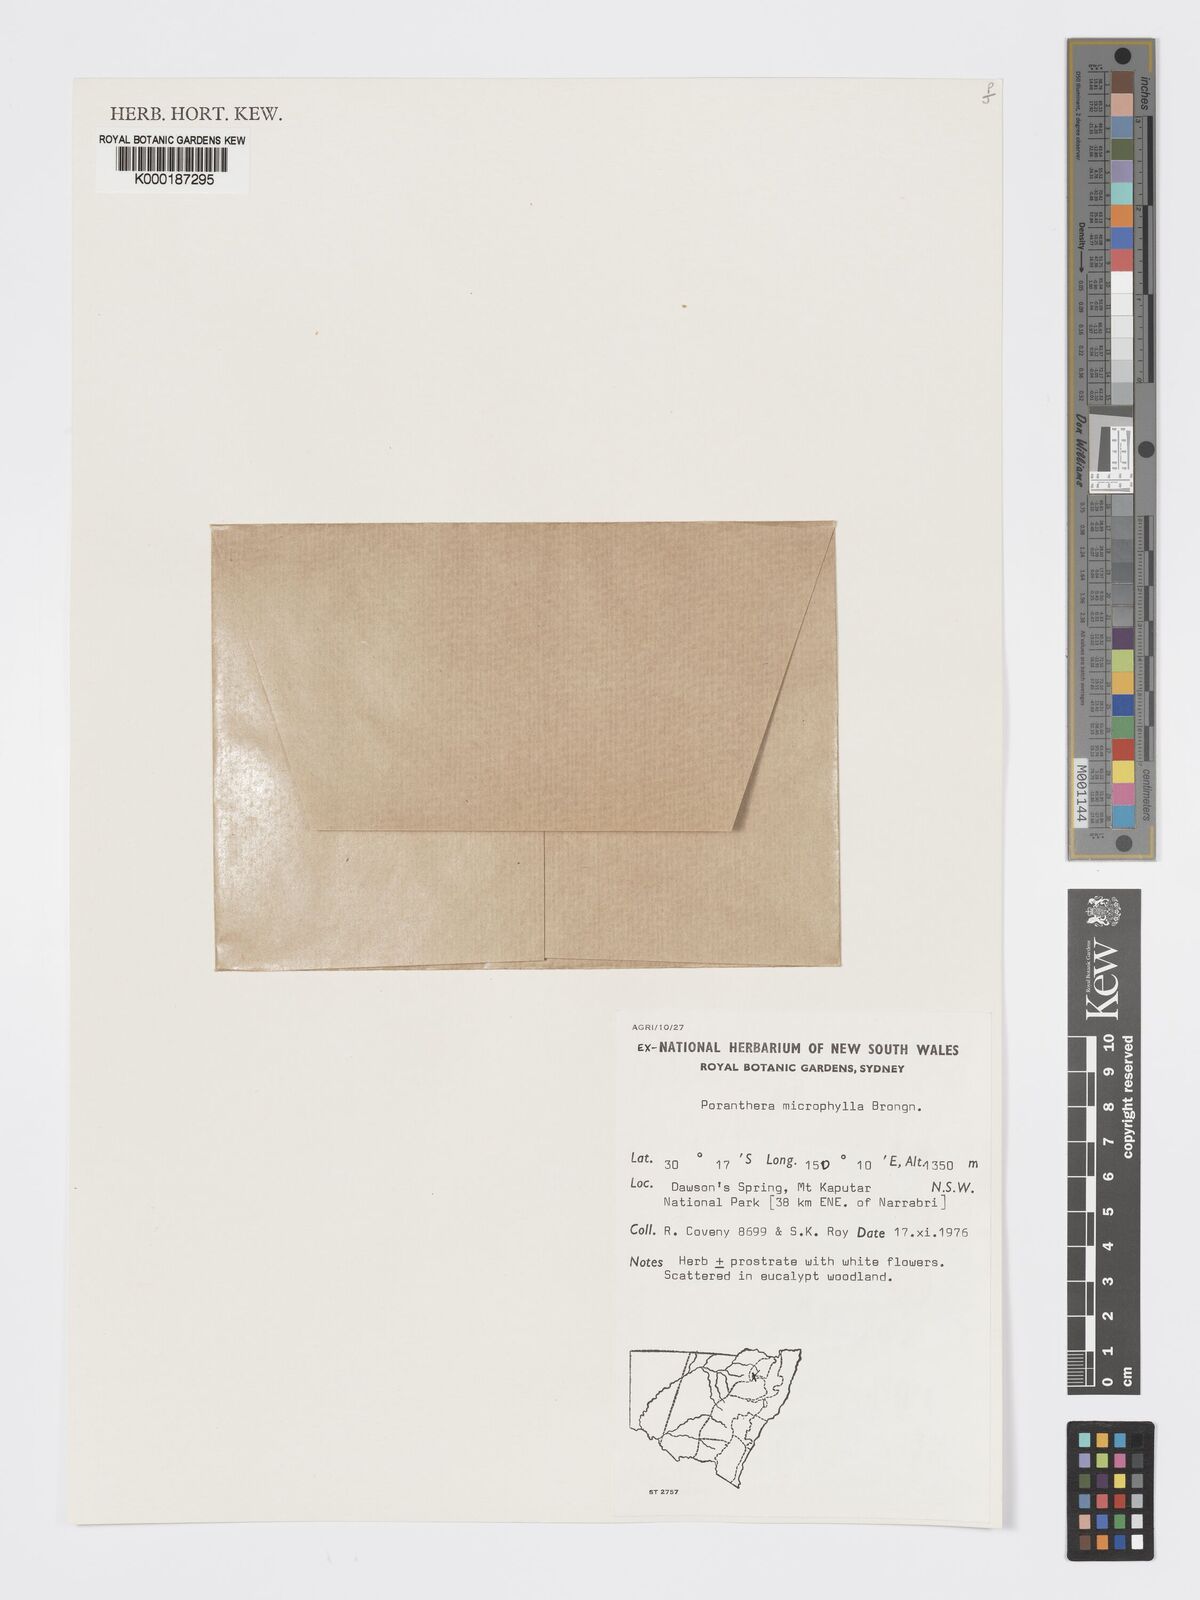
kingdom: Plantae
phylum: Tracheophyta
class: Magnoliopsida
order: Malpighiales
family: Phyllanthaceae
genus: Poranthera
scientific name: Poranthera microphylla
